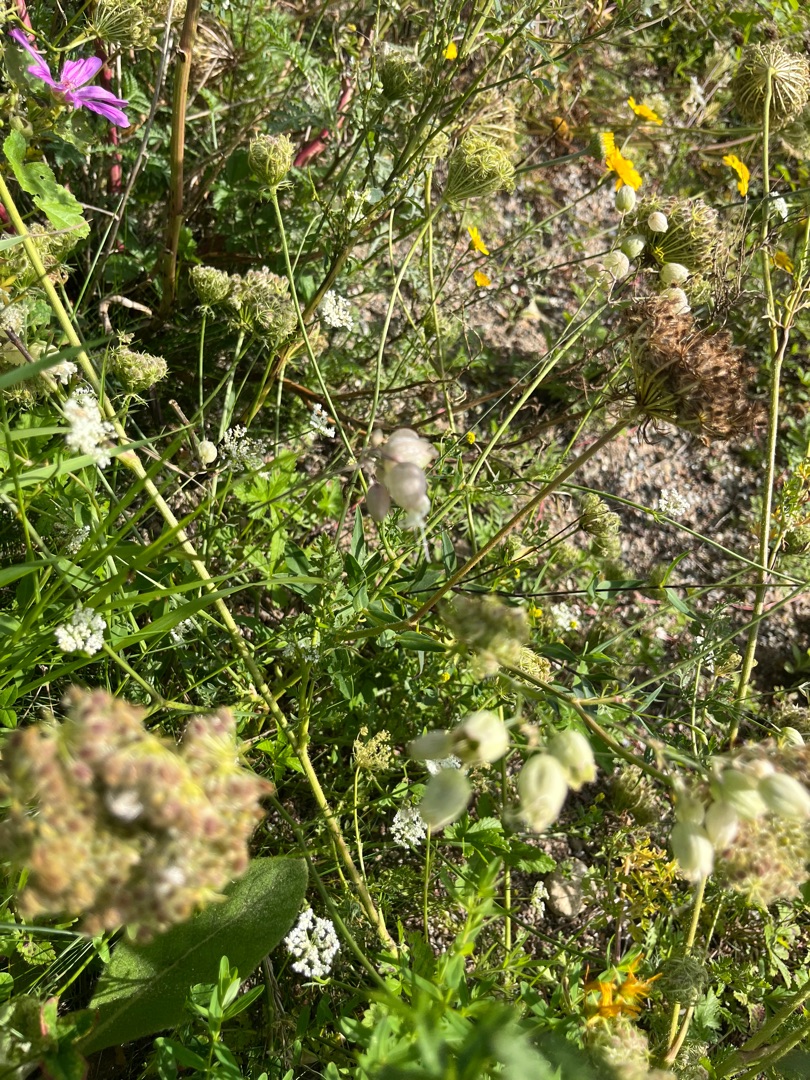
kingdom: Plantae
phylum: Tracheophyta
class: Magnoliopsida
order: Caryophyllales
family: Caryophyllaceae
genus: Silene
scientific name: Silene vulgaris
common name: Blæresmælde
